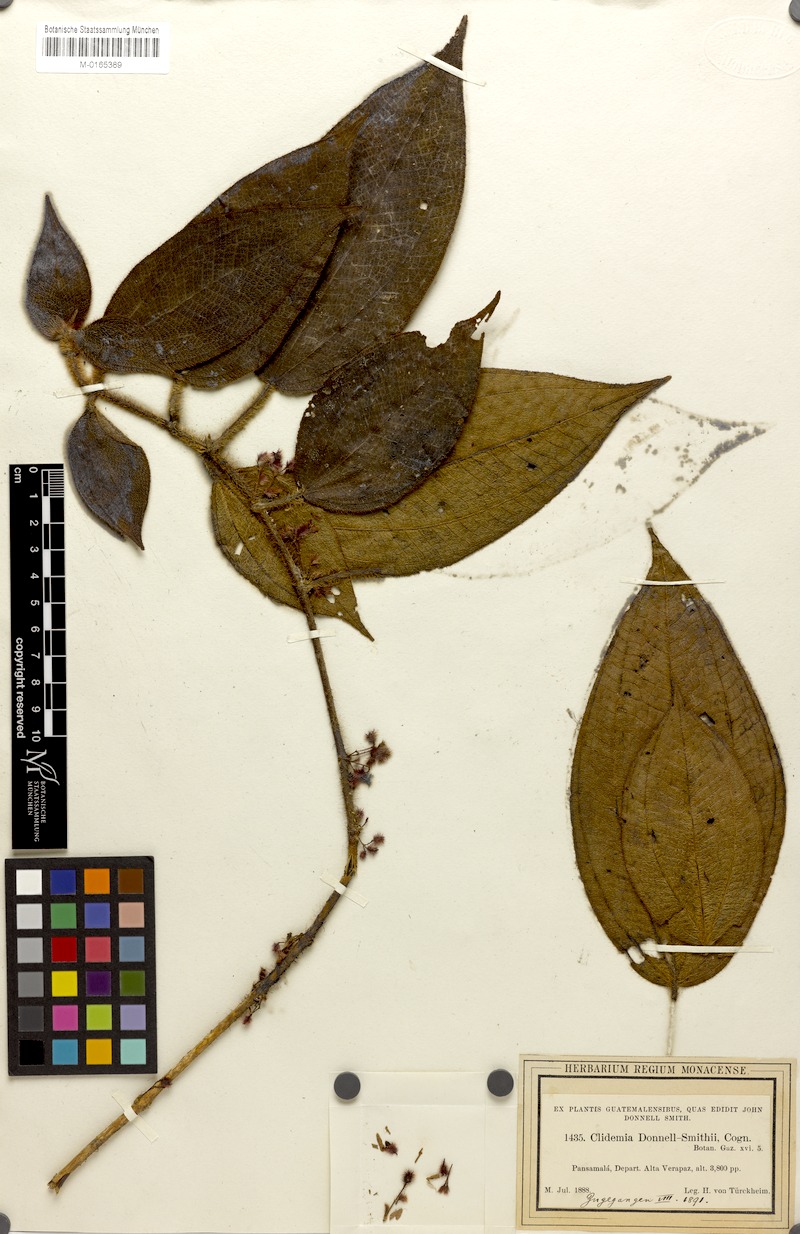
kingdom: Plantae
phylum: Tracheophyta
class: Magnoliopsida
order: Myrtales
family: Melastomataceae
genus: Miconia
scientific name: Miconia mesoamericana
